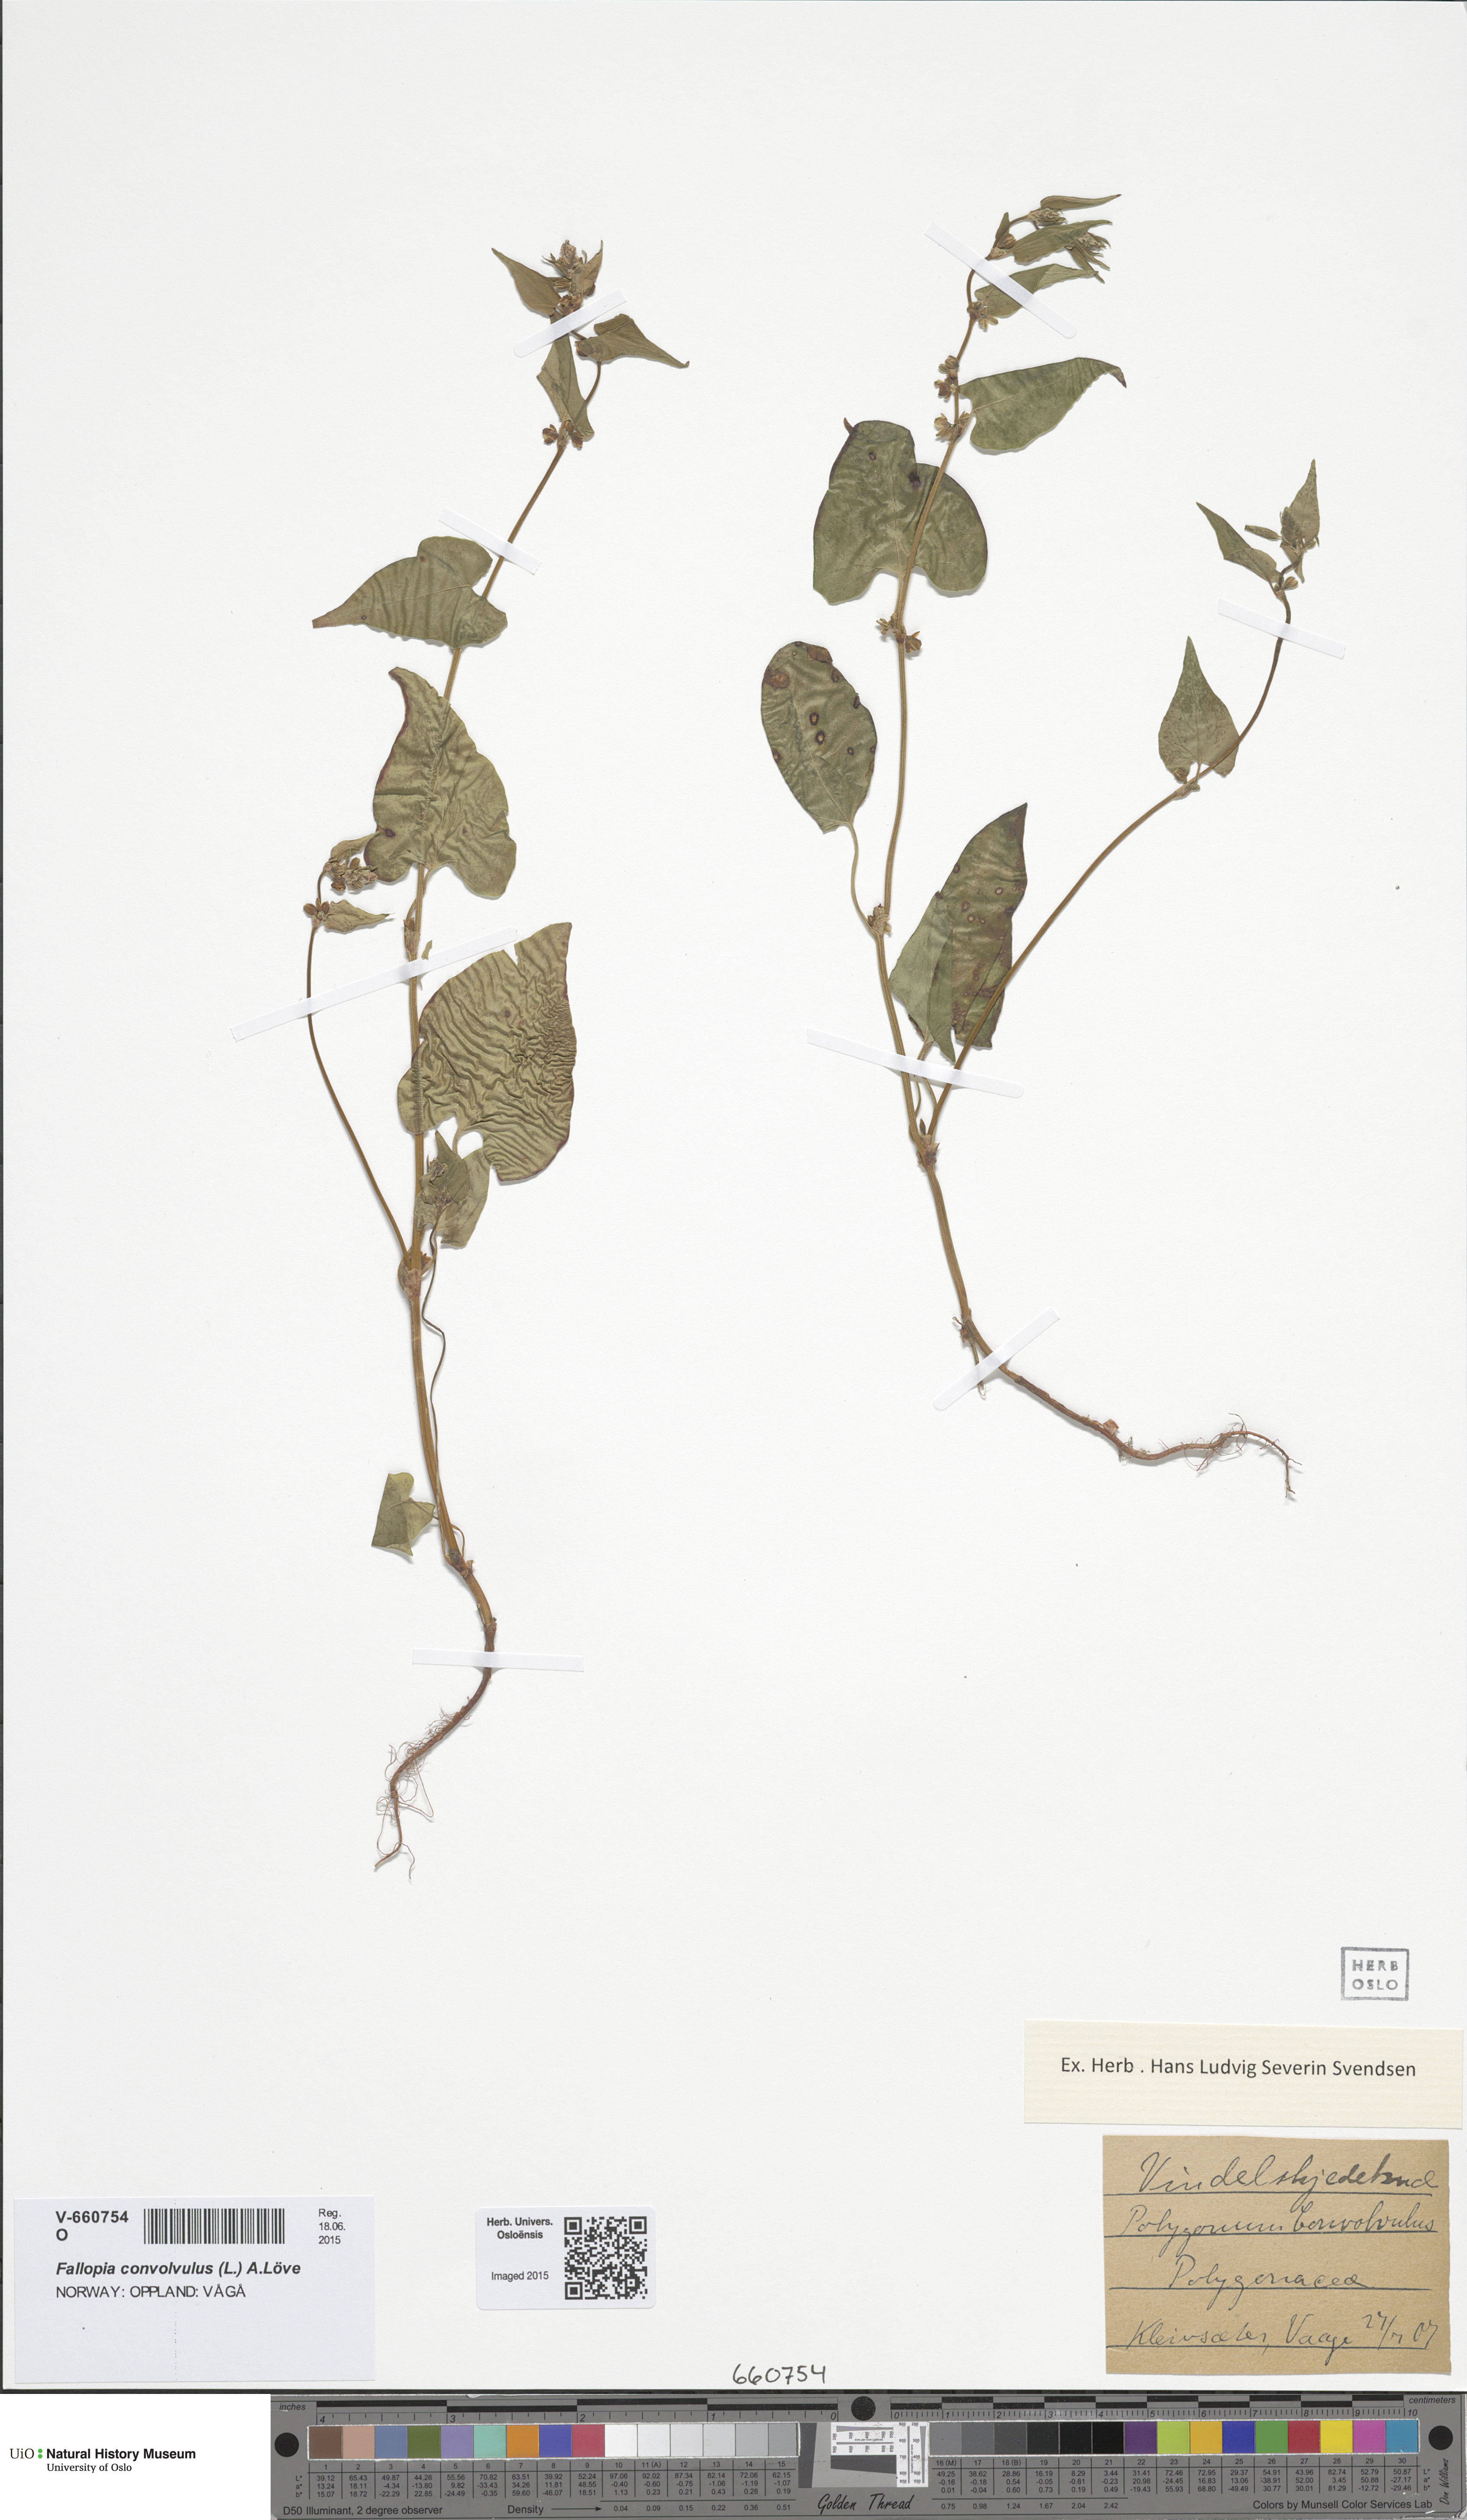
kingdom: Plantae
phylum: Tracheophyta
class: Magnoliopsida
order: Caryophyllales
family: Polygonaceae
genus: Fallopia
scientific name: Fallopia convolvulus
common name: Black bindweed
